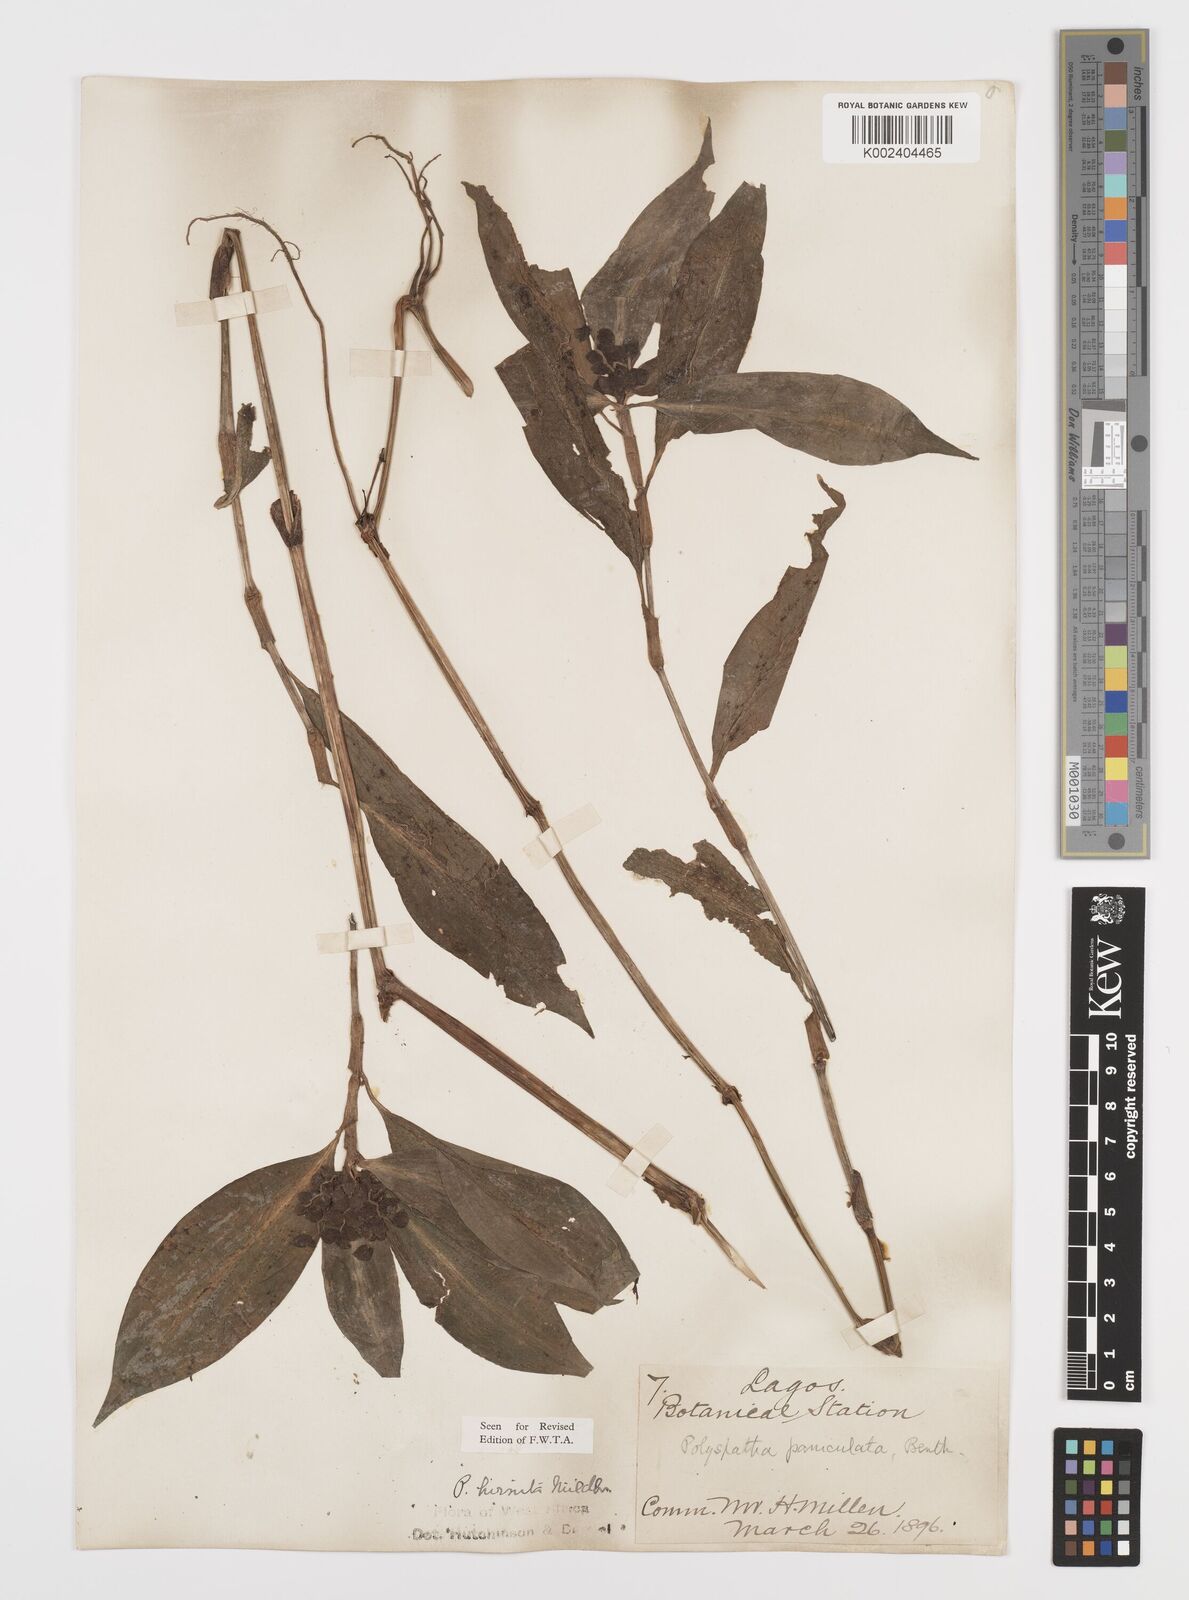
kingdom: Plantae
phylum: Tracheophyta
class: Liliopsida
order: Commelinales
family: Commelinaceae
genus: Polyspatha
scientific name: Polyspatha hirsuta
